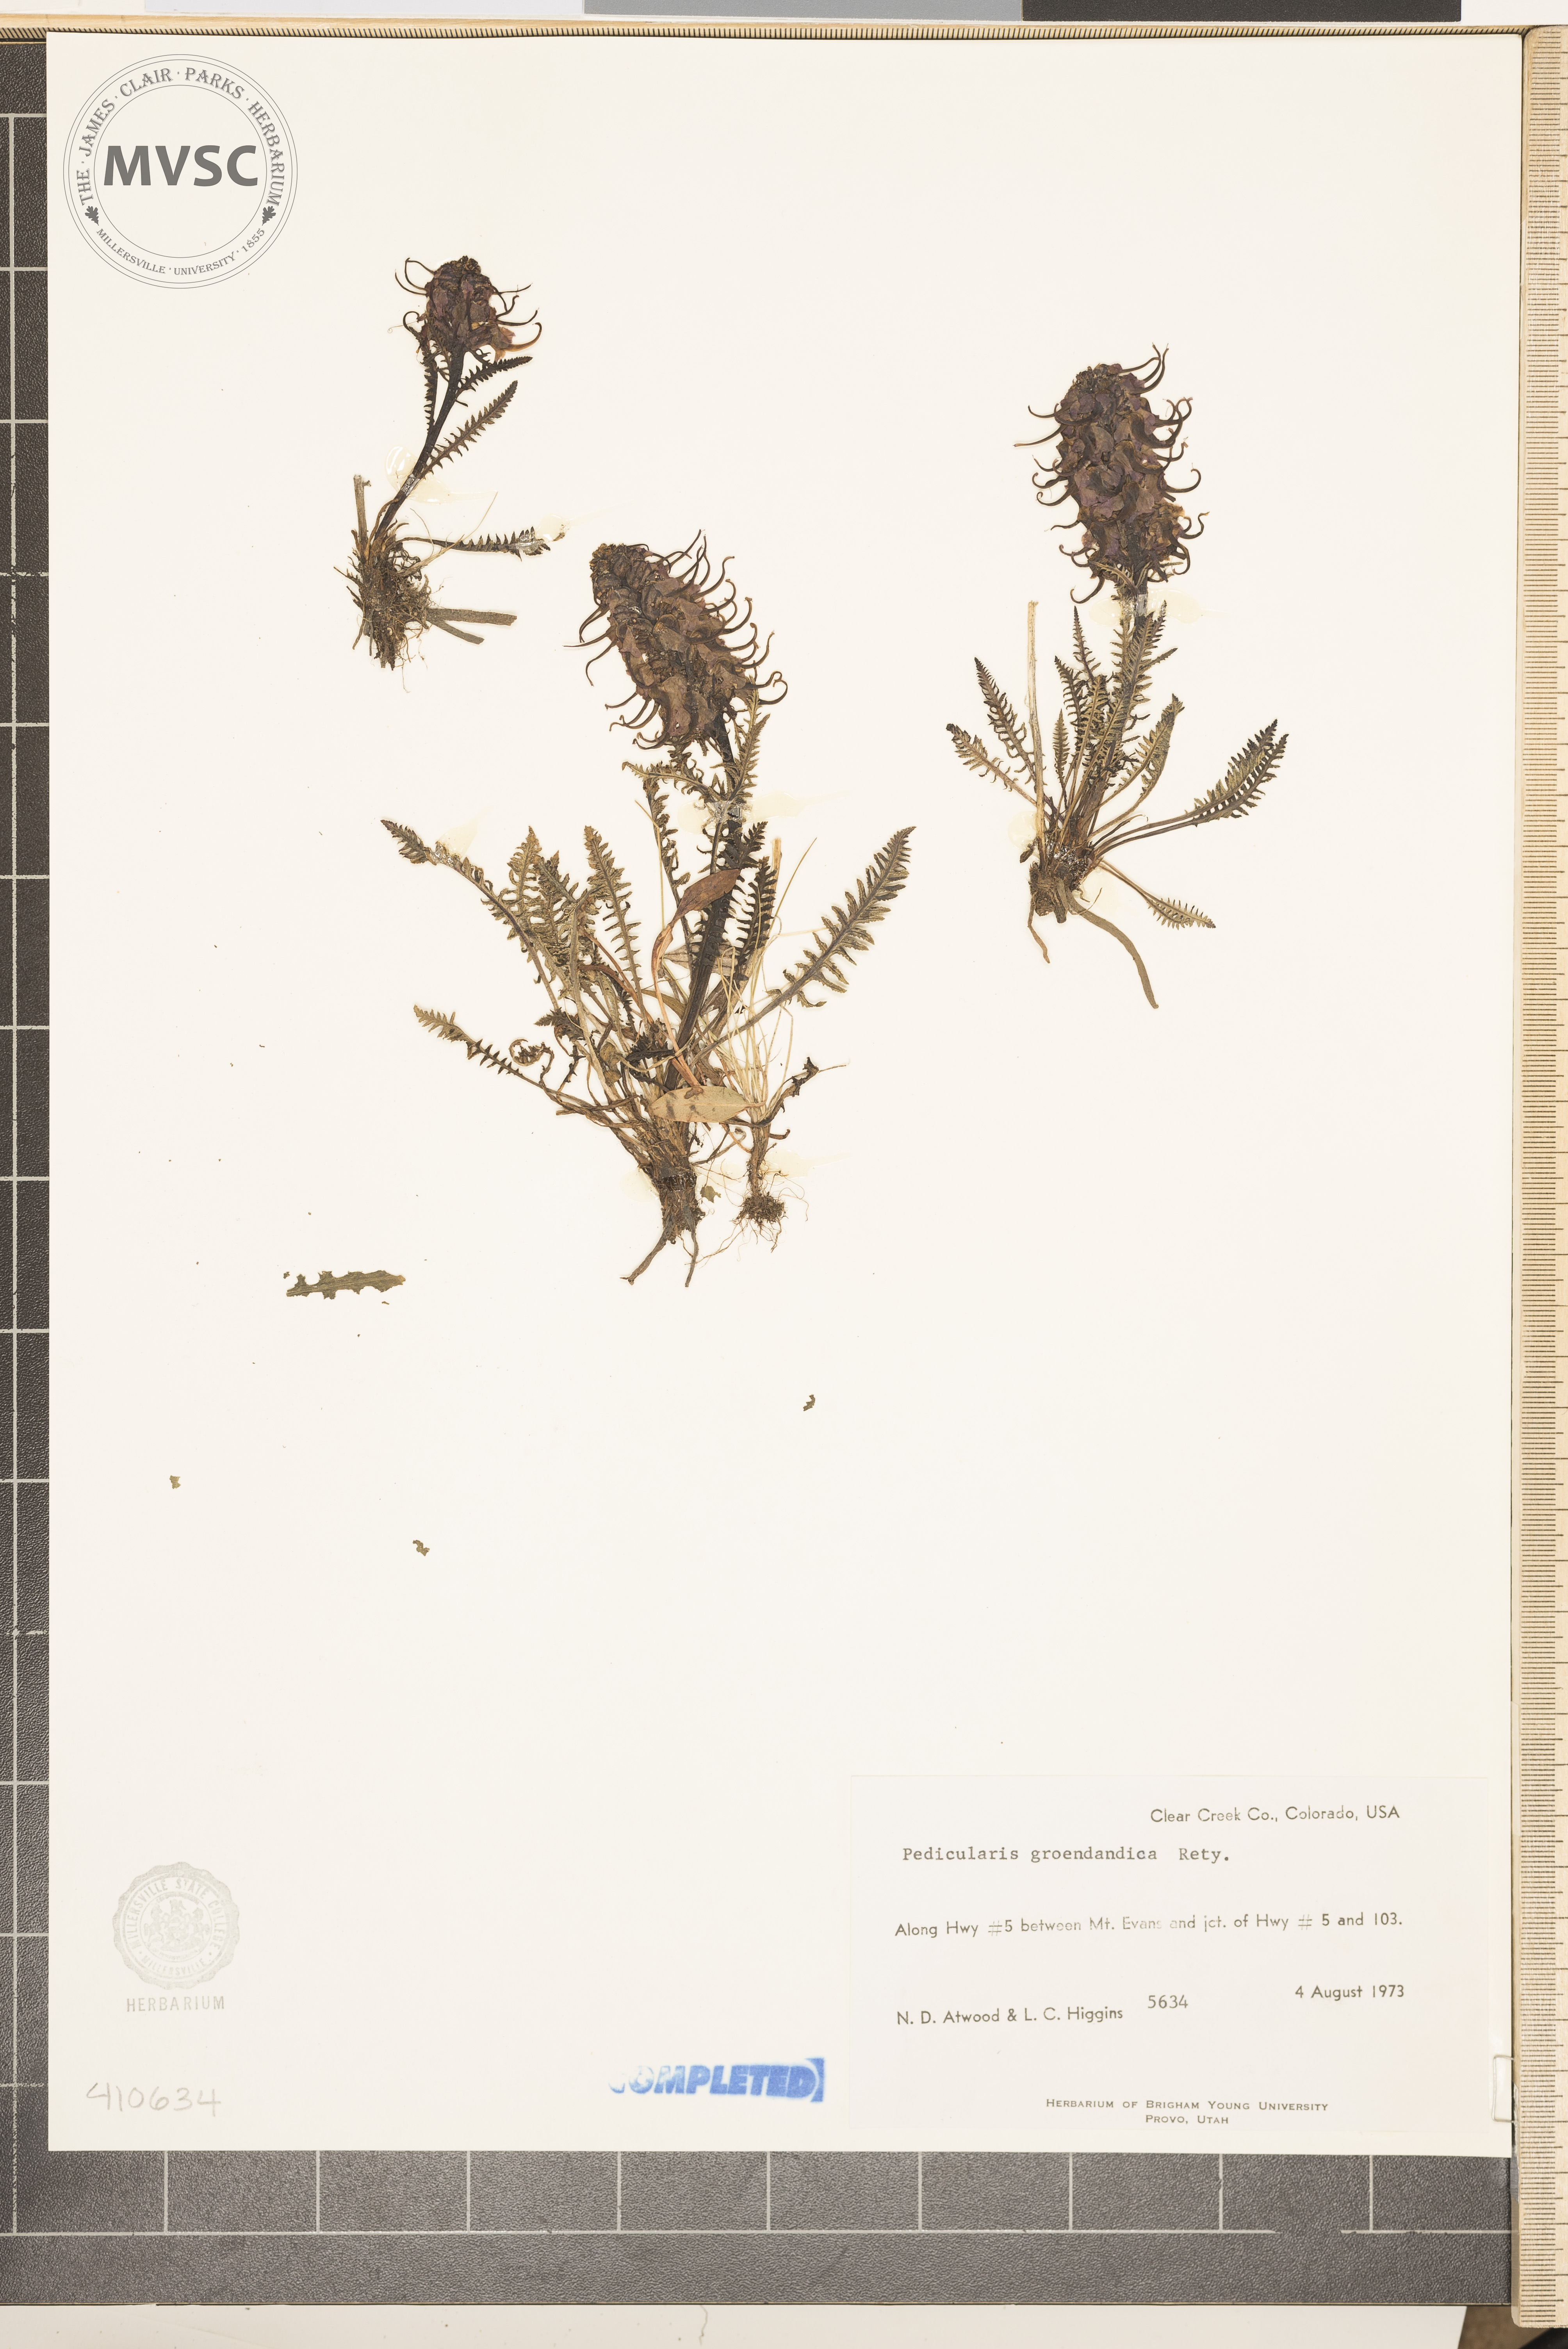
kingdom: Plantae
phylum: Tracheophyta
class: Magnoliopsida
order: Lamiales
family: Orobanchaceae
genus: Pedicularis
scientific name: Pedicularis groenlandica
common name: Elephant's-head
